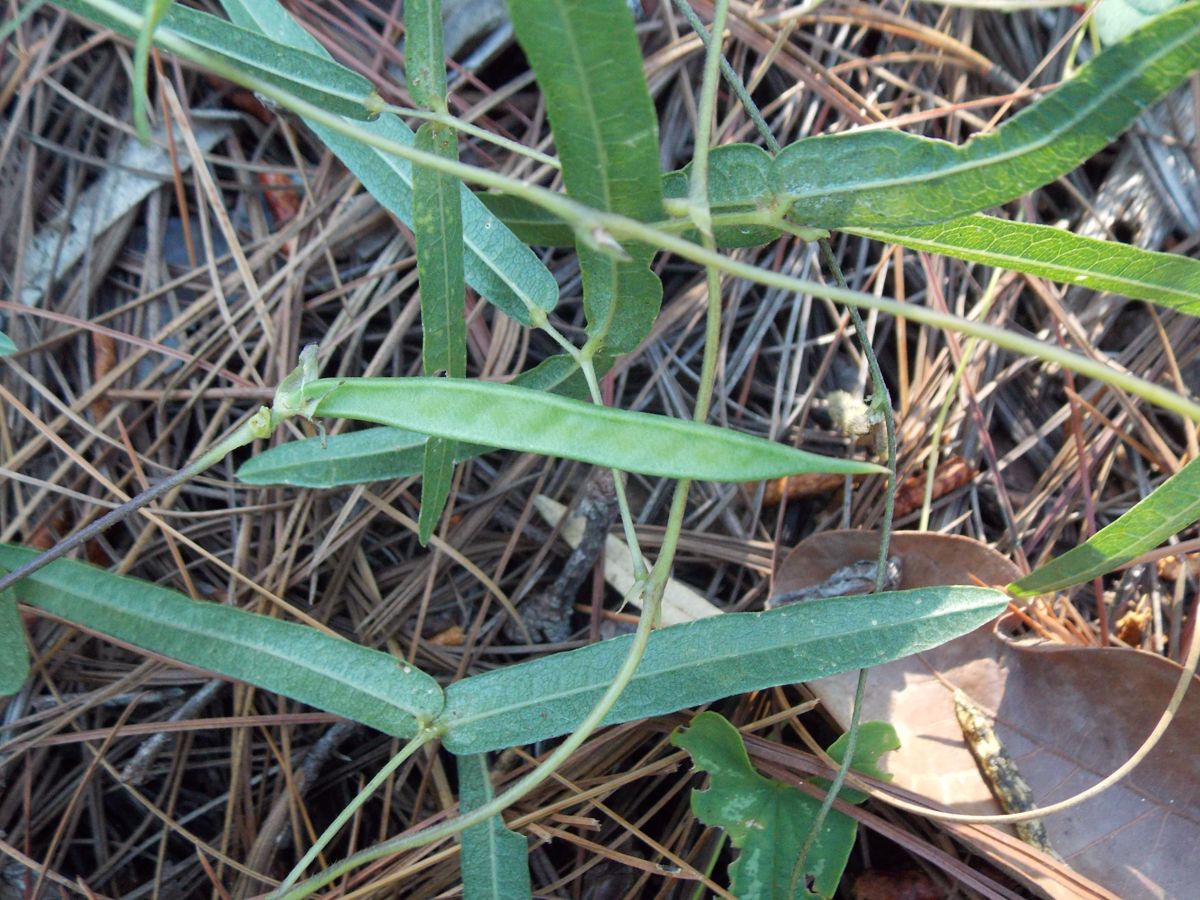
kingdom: Plantae
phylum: Tracheophyta
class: Magnoliopsida
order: Fabales
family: Fabaceae
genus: Helicotropis
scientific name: Helicotropis linearis
